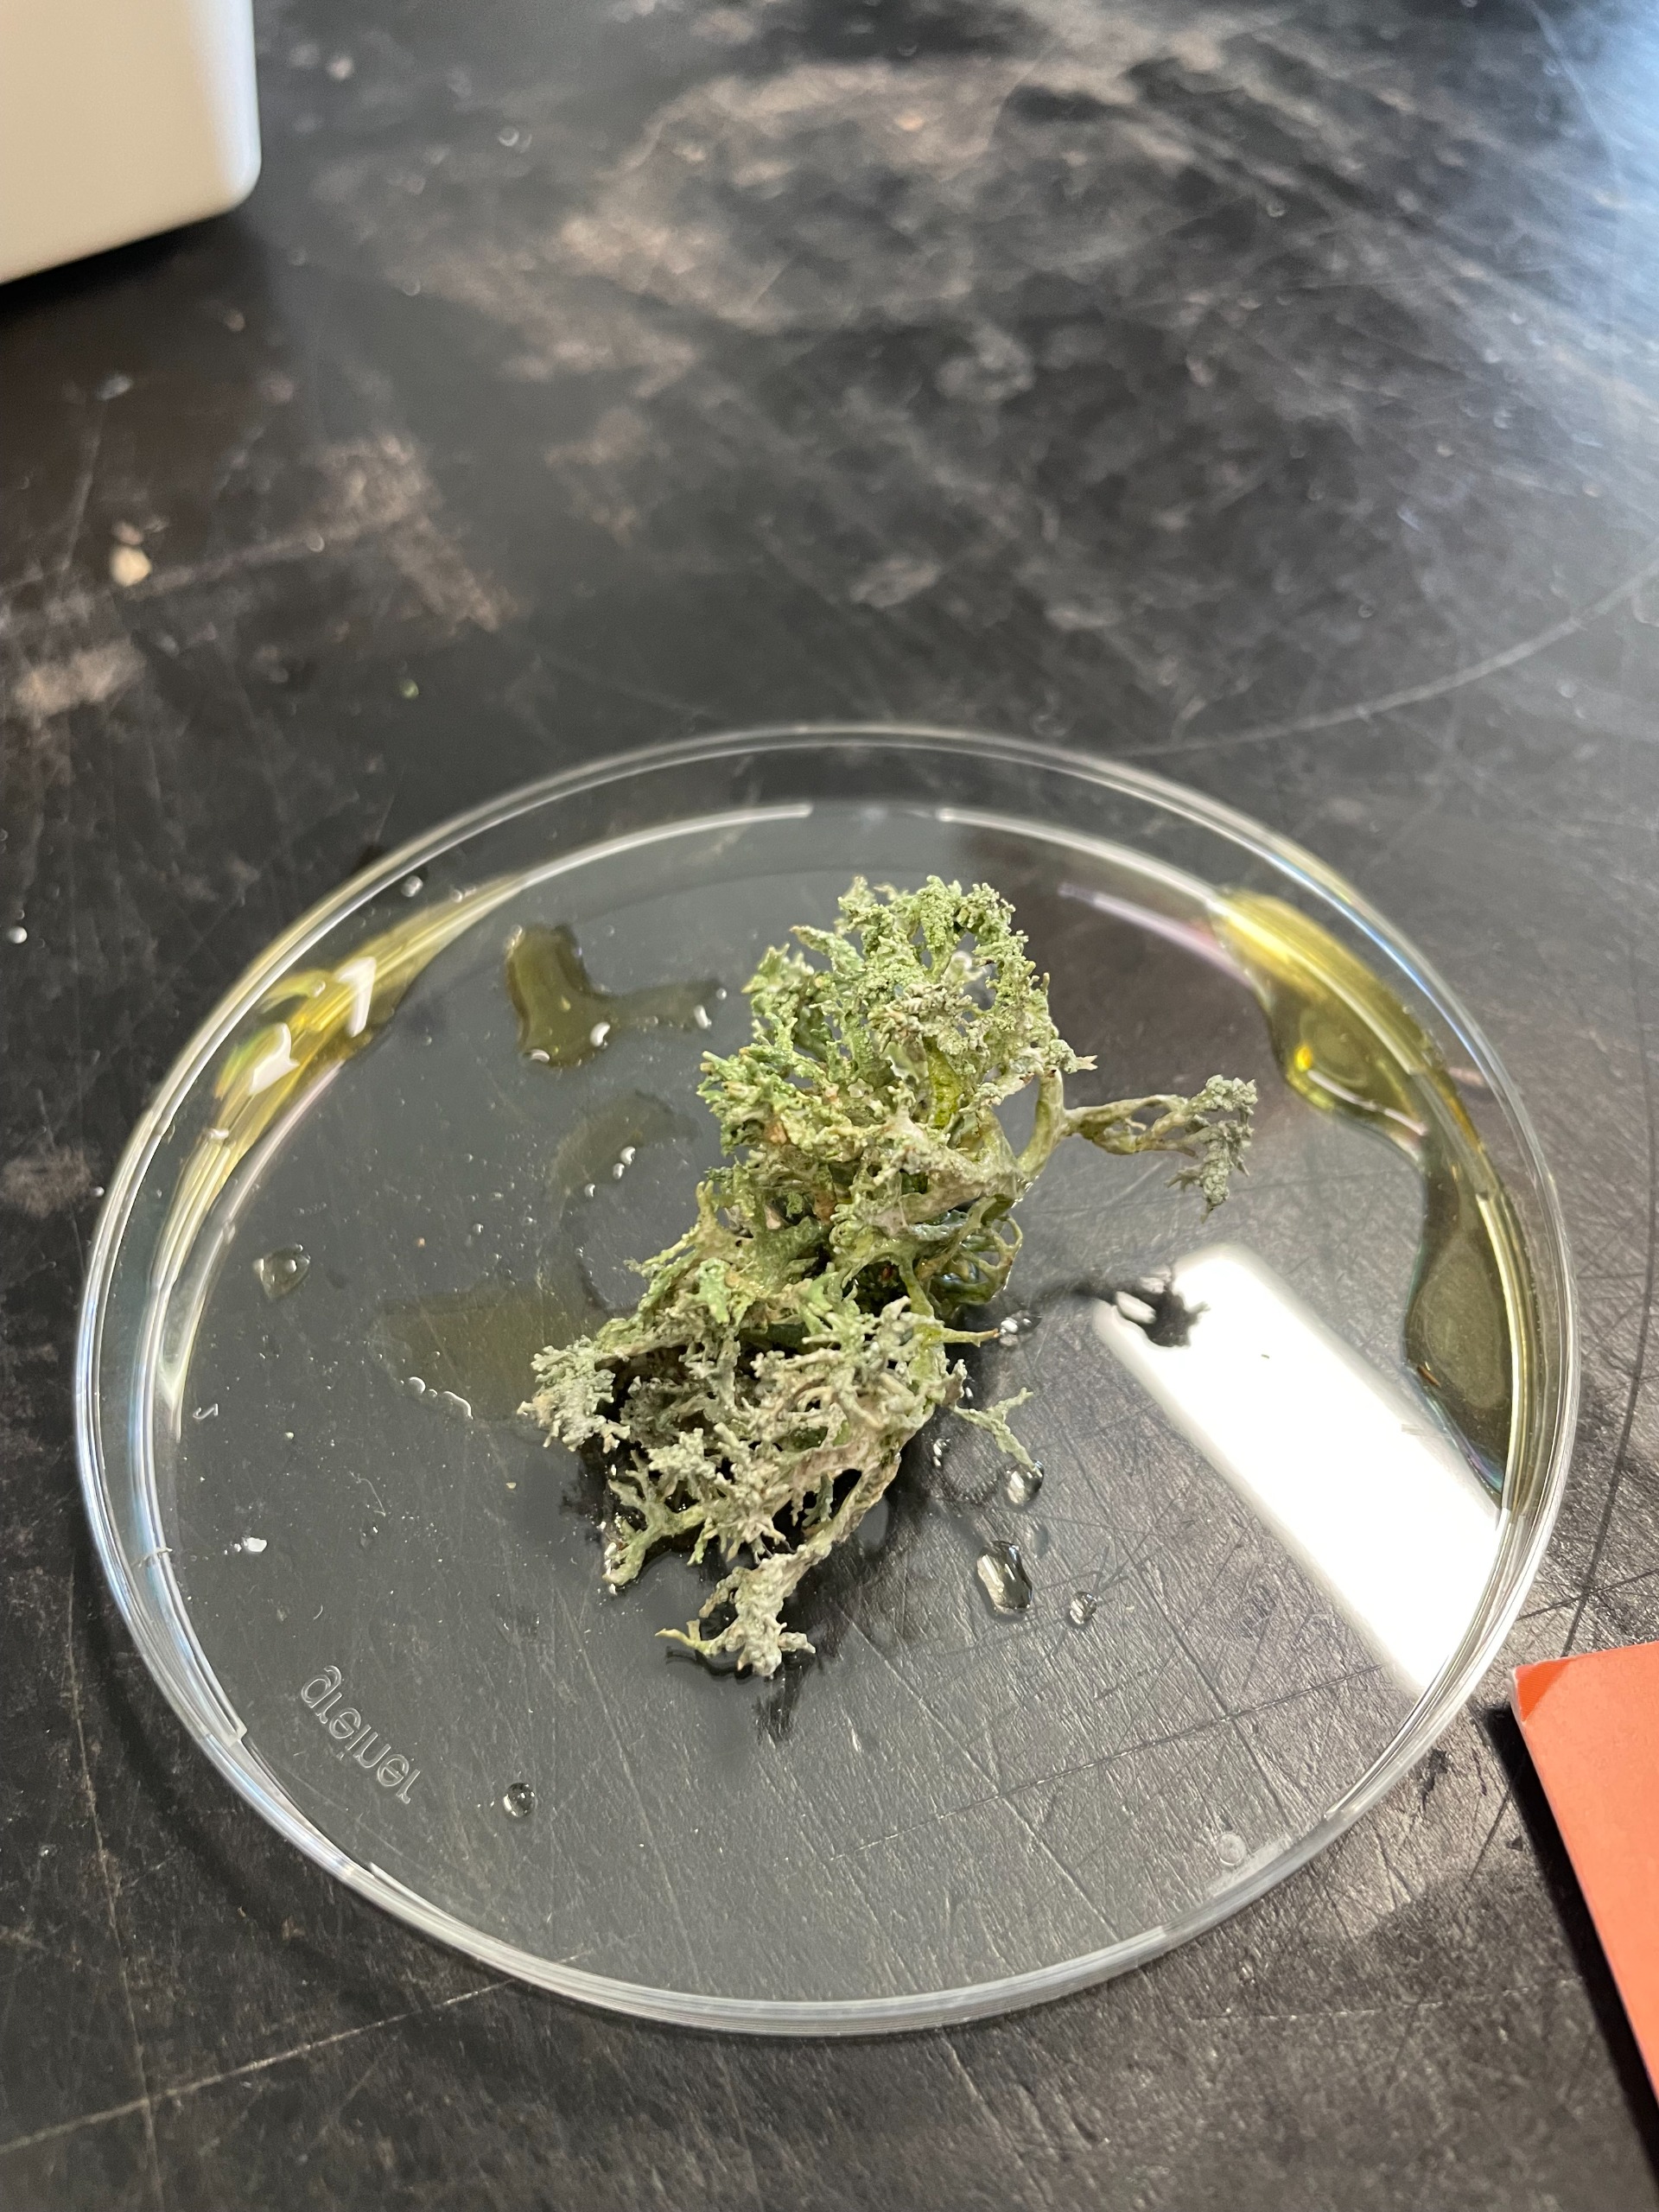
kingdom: Fungi
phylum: Ascomycota
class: Lecanoromycetes
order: Lecanorales
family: Parmeliaceae
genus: Evernia
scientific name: Evernia prunastri
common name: Almindelig slåenlav
